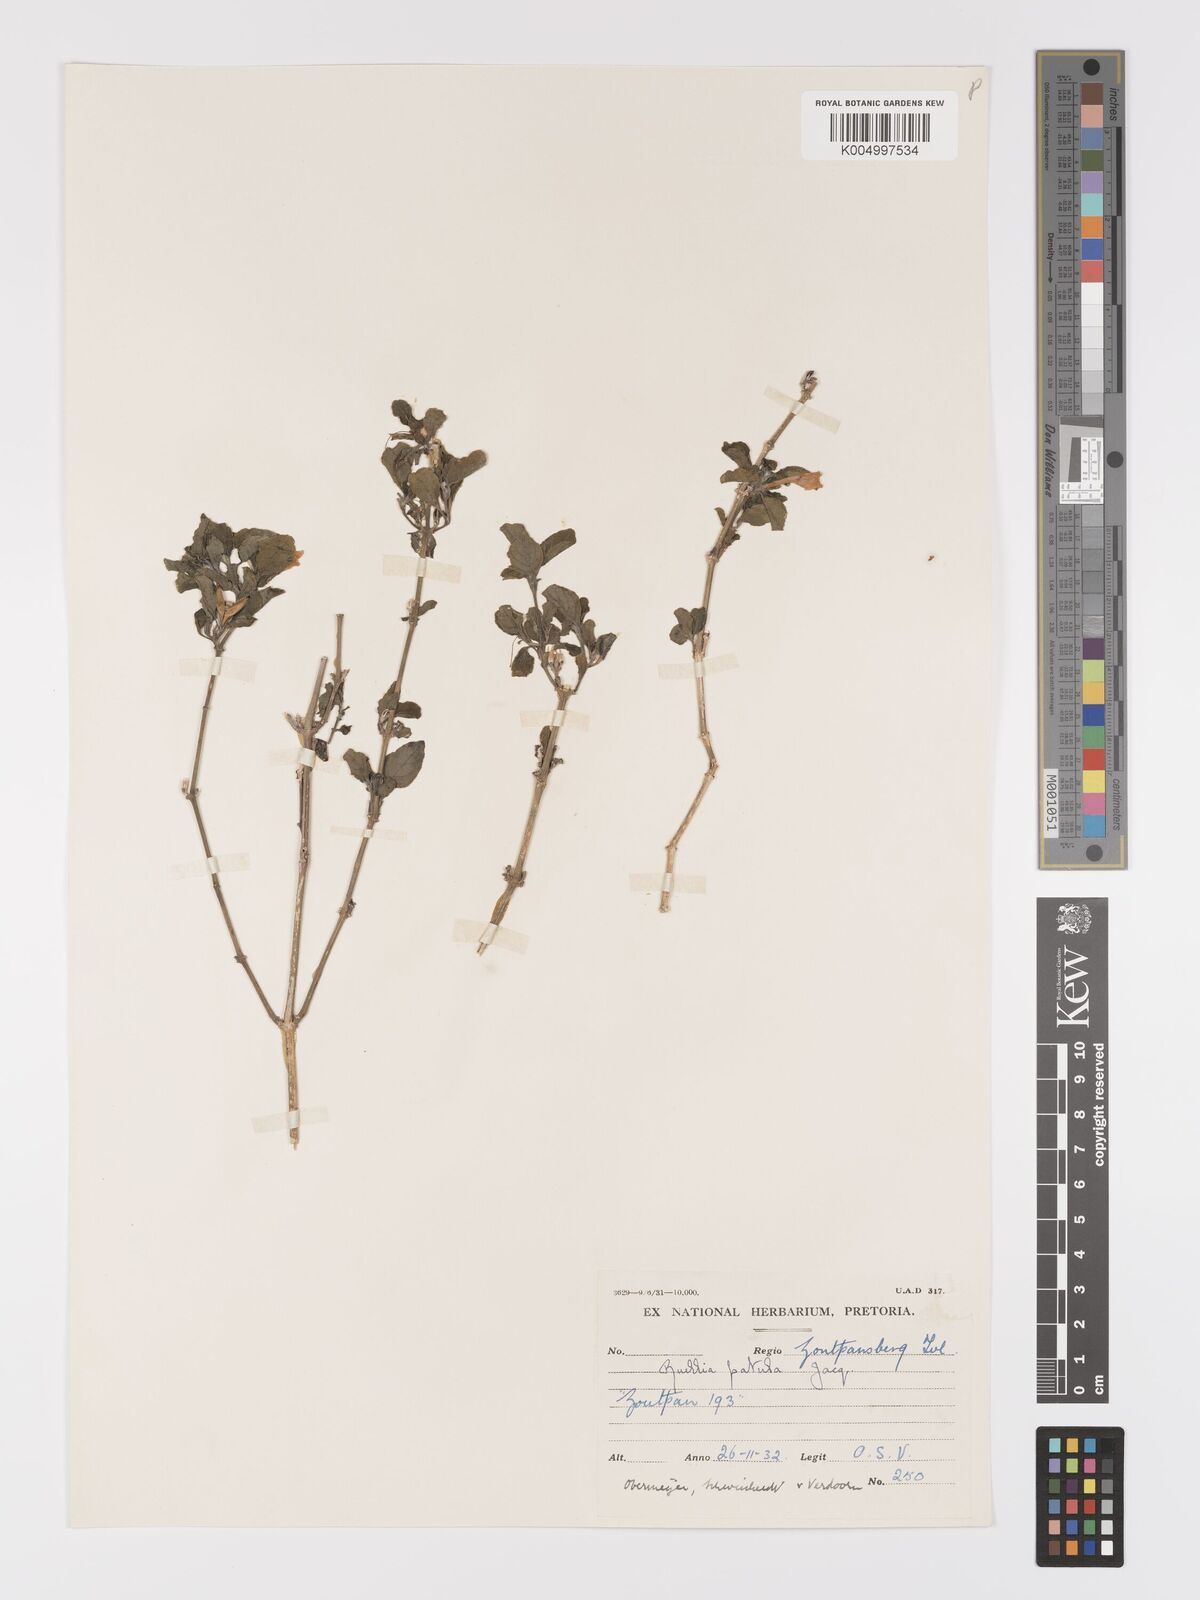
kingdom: Plantae
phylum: Tracheophyta
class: Magnoliopsida
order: Lamiales
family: Acanthaceae
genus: Ruellia
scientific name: Ruellia patula
